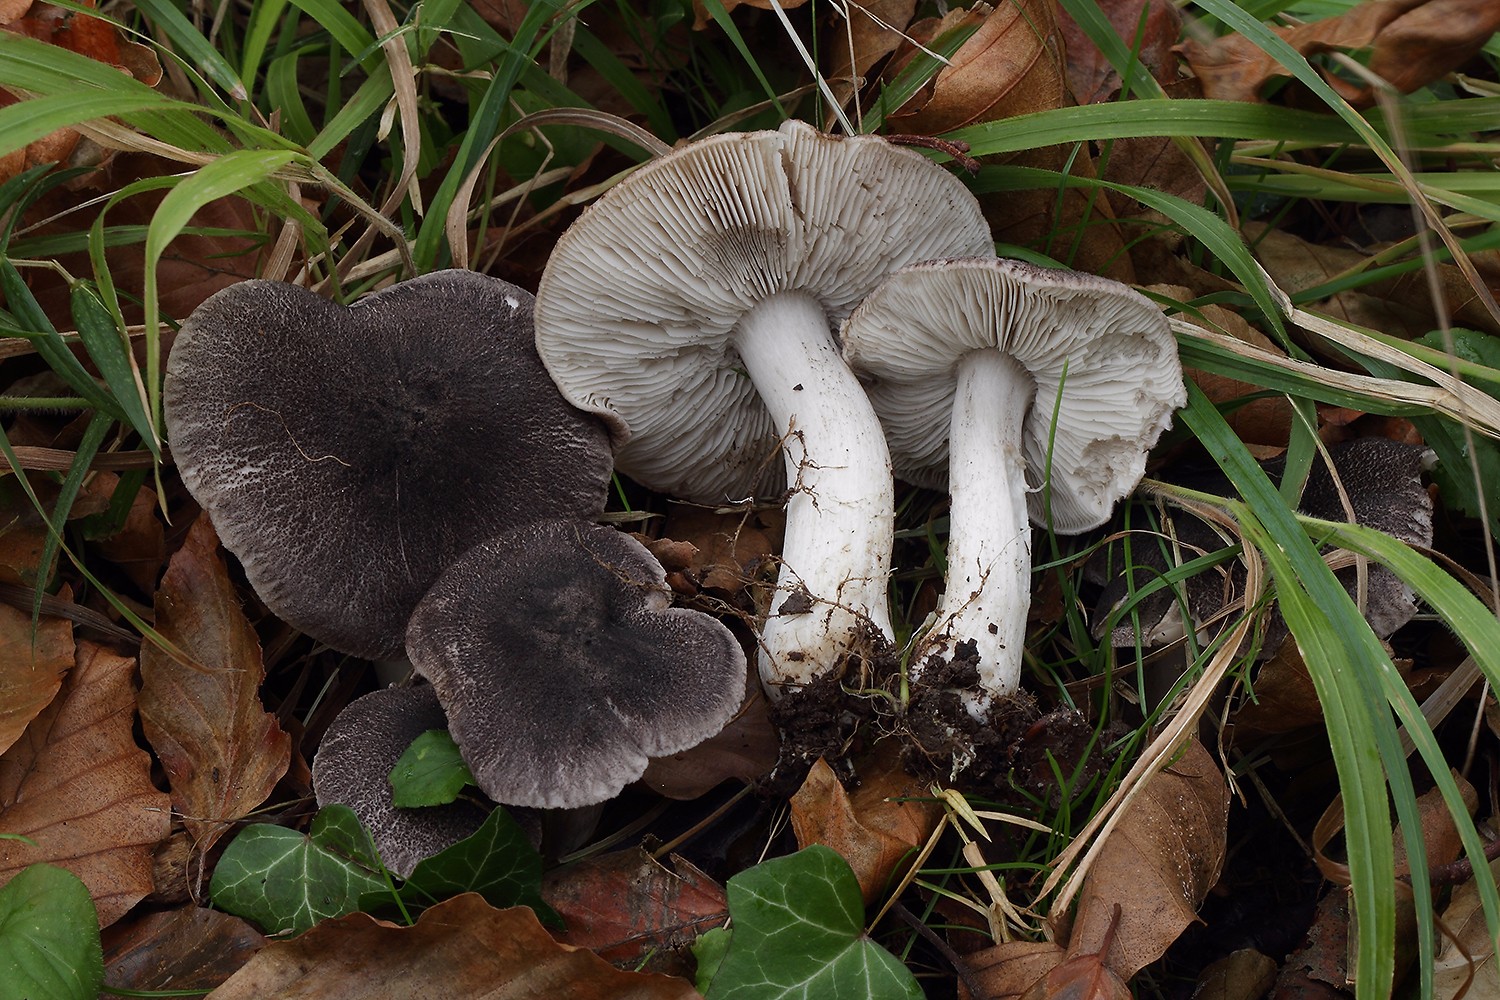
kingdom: Fungi
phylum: Basidiomycota
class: Agaricomycetes
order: Agaricales
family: Tricholomataceae
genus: Tricholoma
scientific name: Tricholoma orirubens
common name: rødbladet ridderhat
